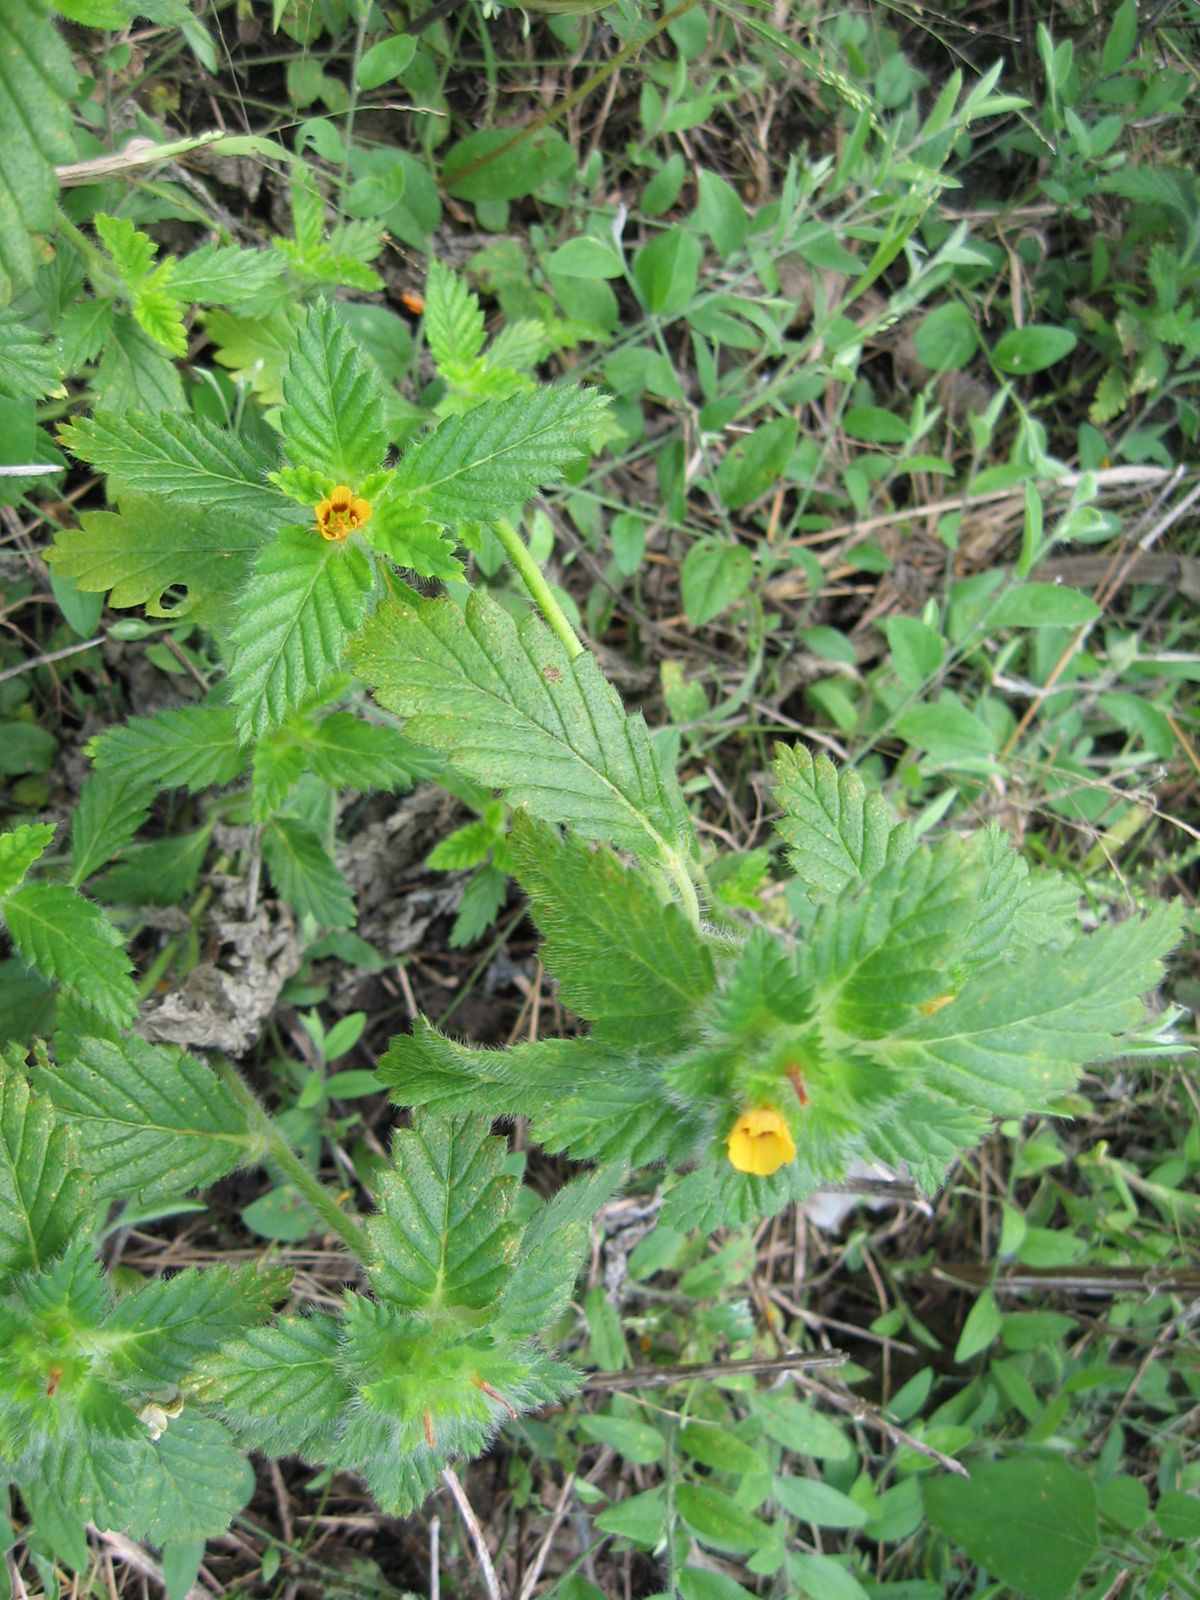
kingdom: Plantae
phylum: Tracheophyta
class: Magnoliopsida
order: Malpighiales
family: Turneraceae
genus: Turnera
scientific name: Turnera pumilea
